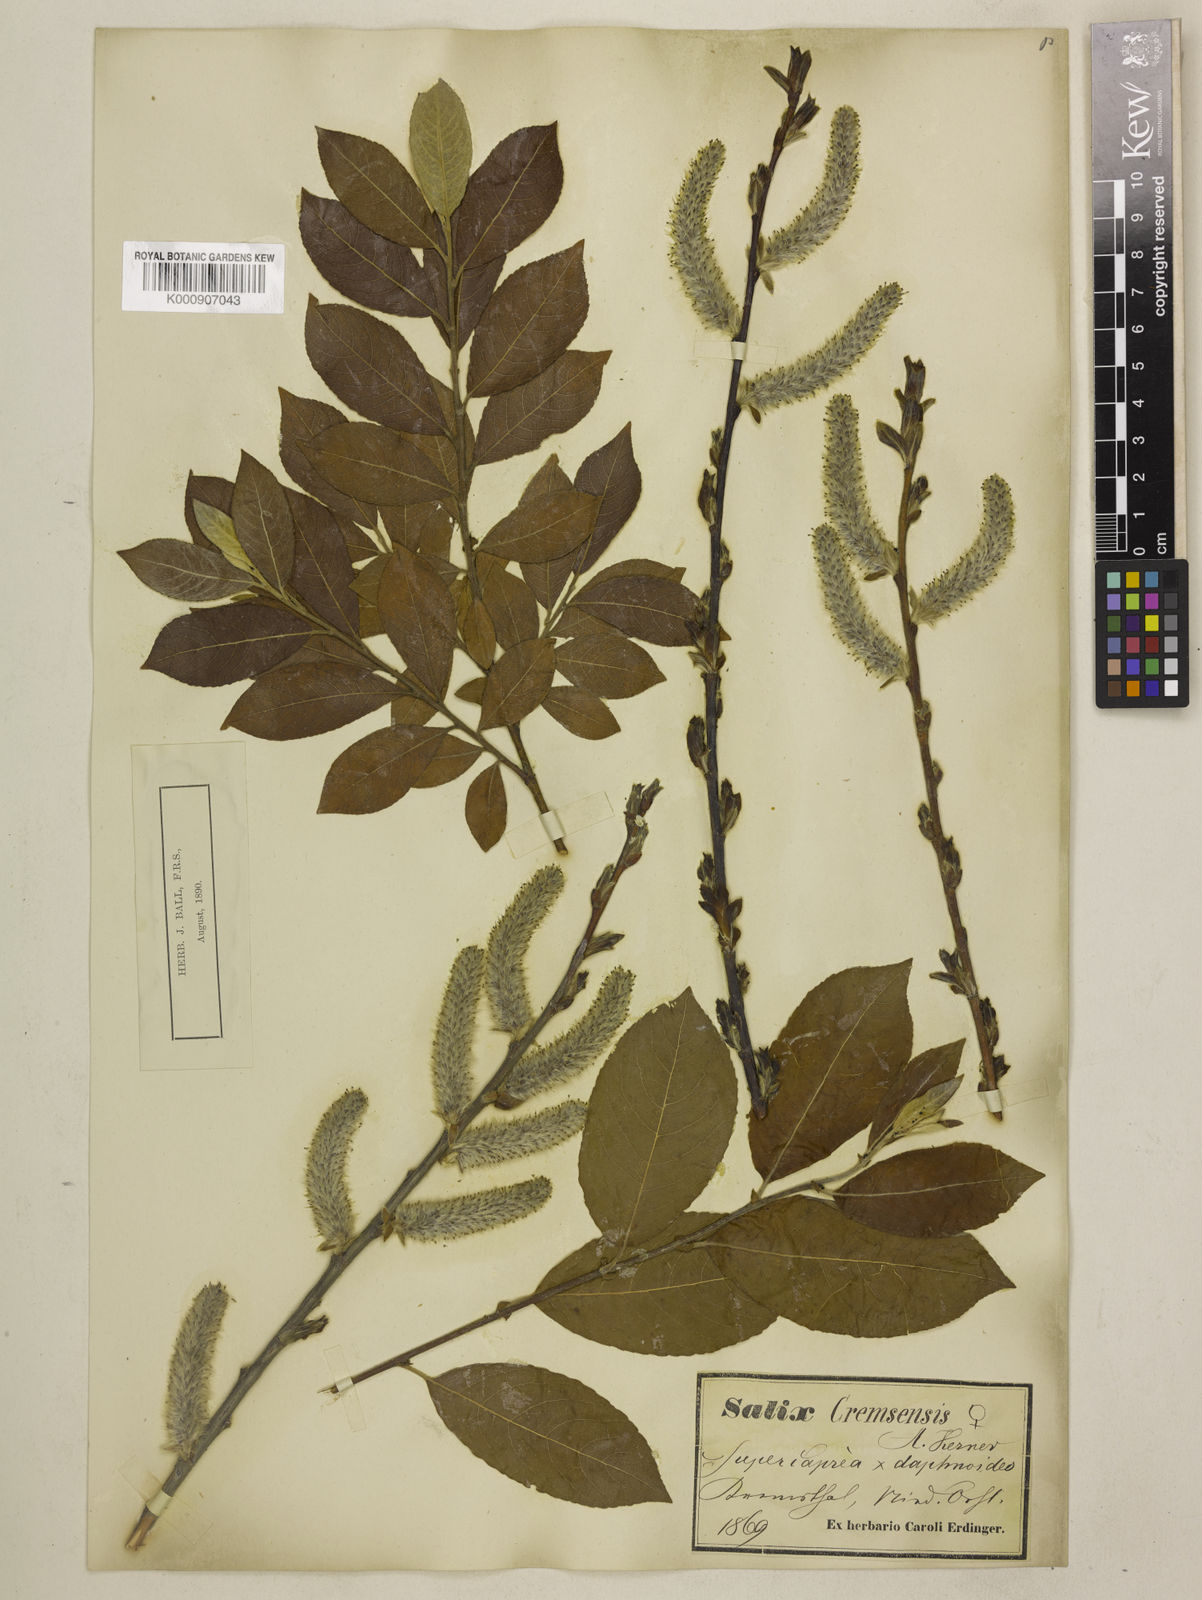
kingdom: Plantae
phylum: Tracheophyta
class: Magnoliopsida
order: Malpighiales
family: Salicaceae
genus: Salix
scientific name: Salix caprea
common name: Goat willow
